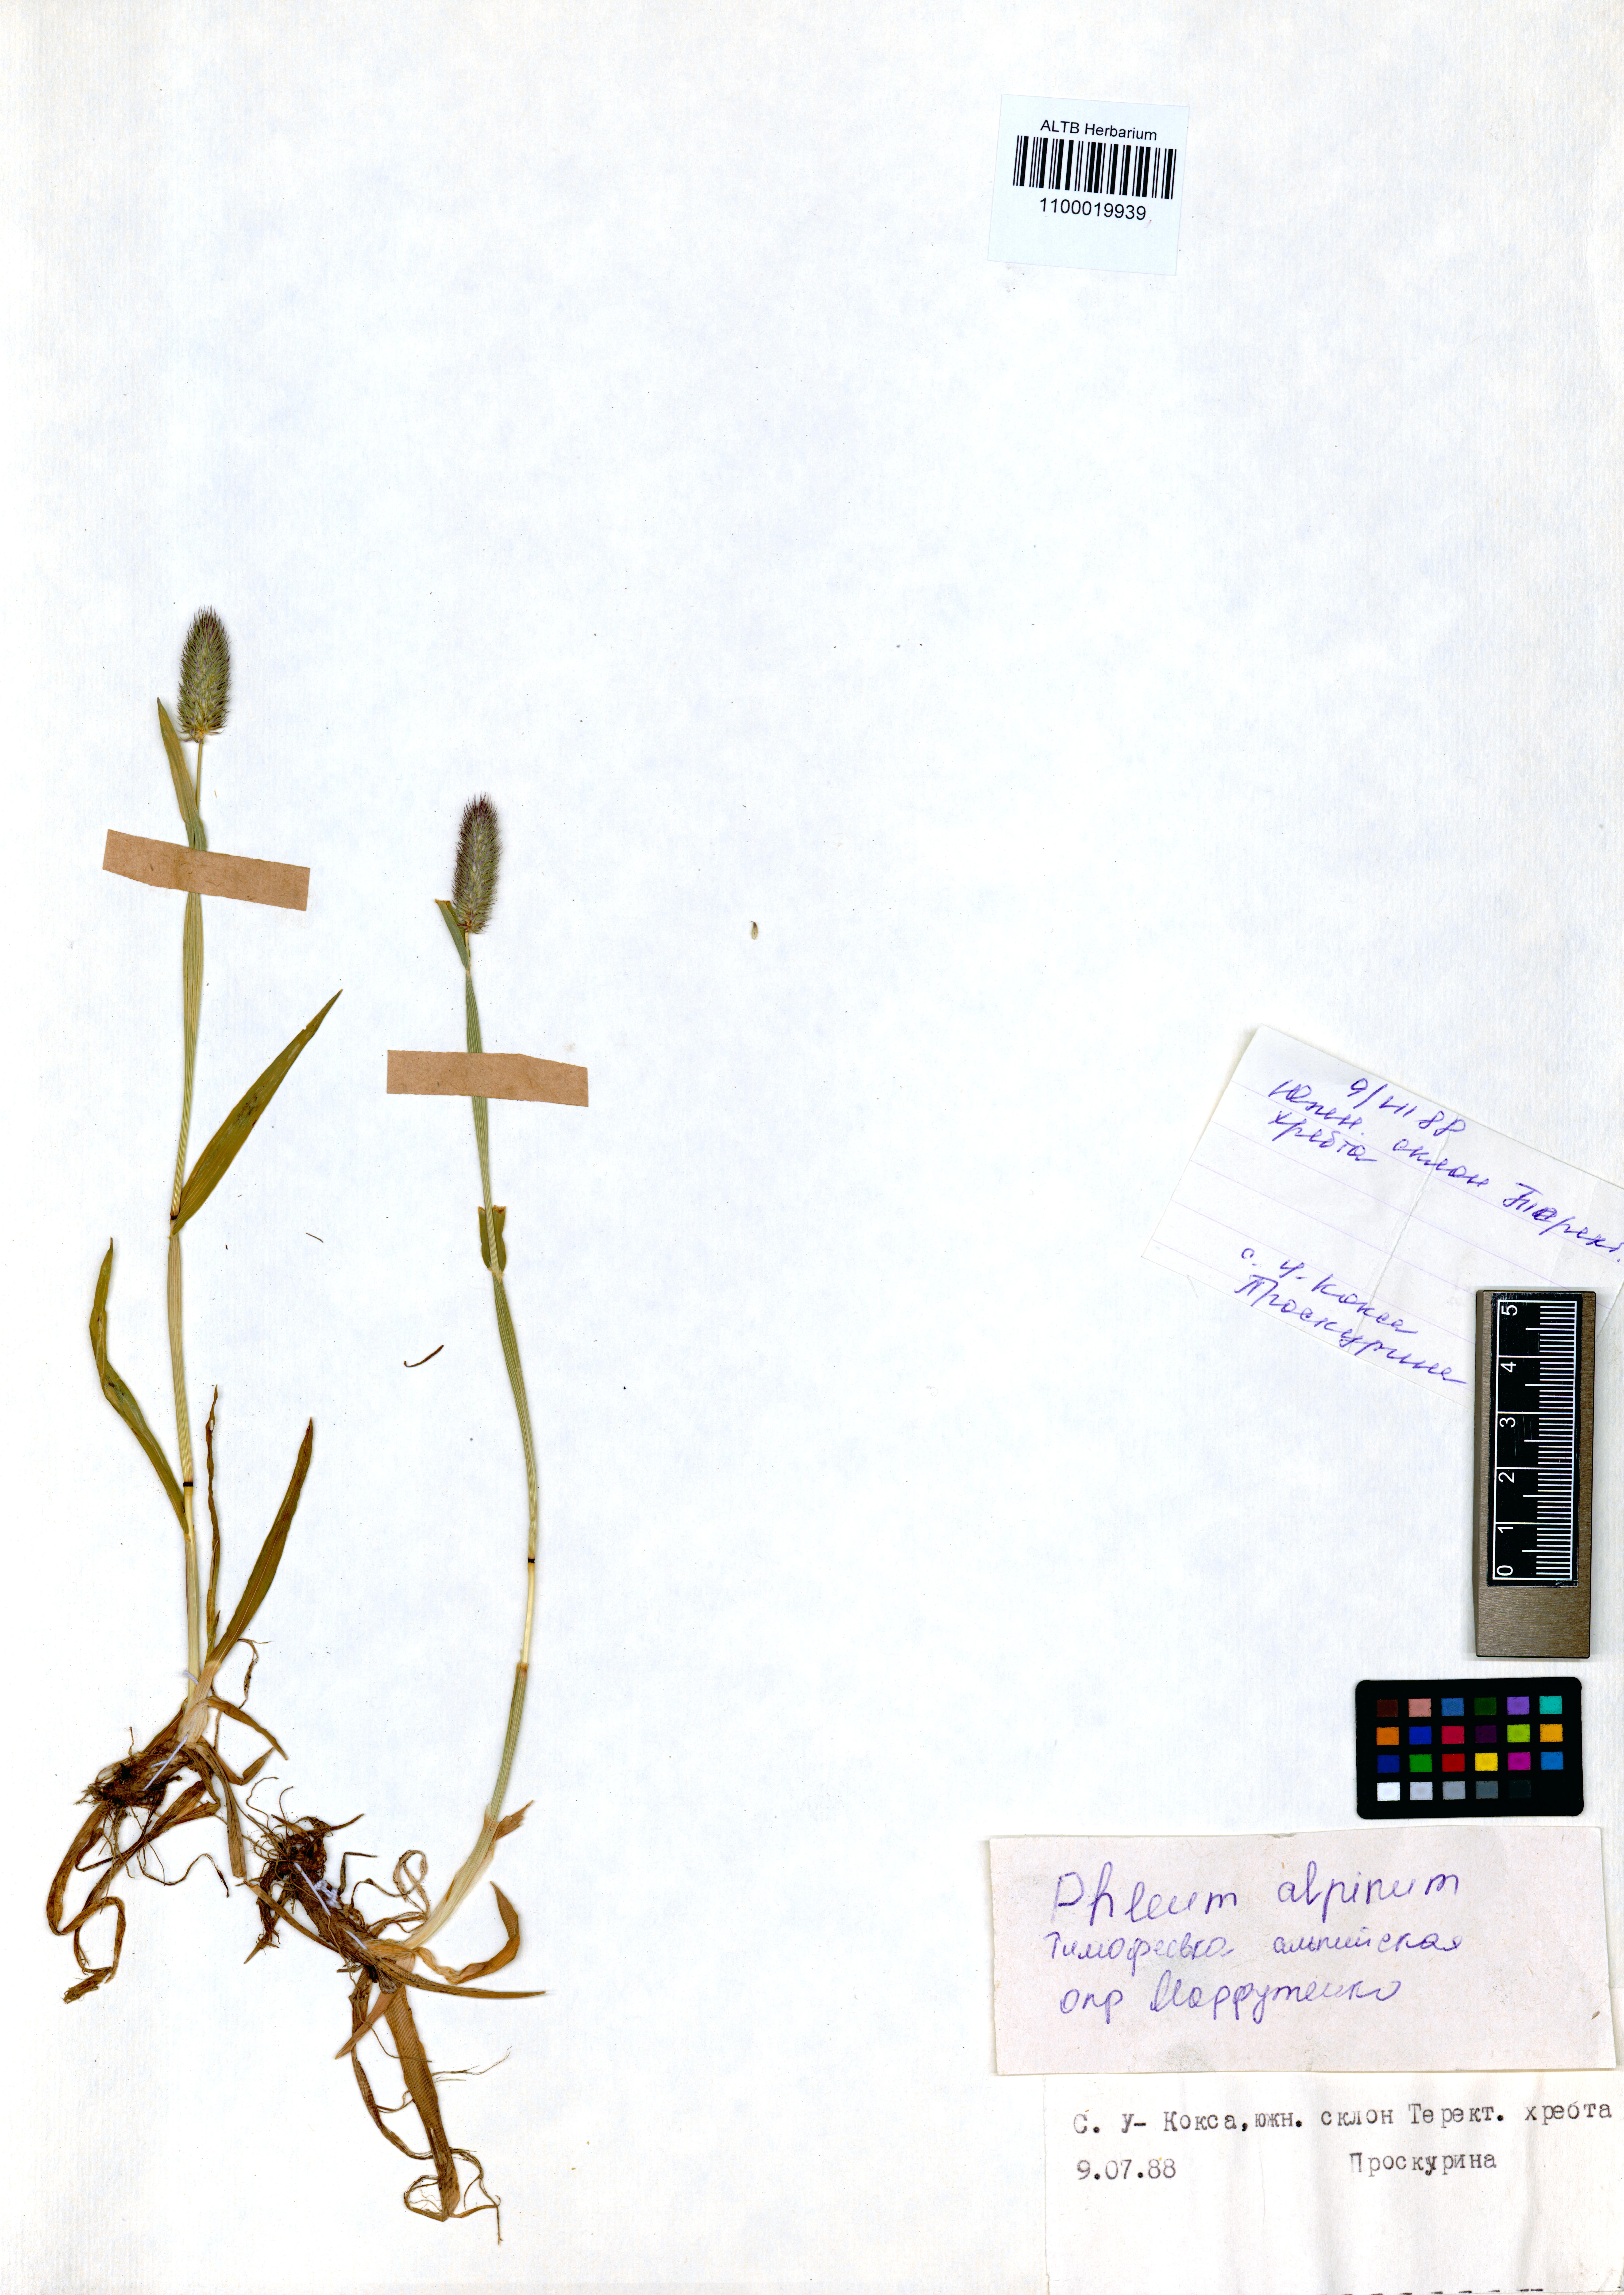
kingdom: Plantae
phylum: Tracheophyta
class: Liliopsida
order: Poales
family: Poaceae
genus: Phleum
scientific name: Phleum alpinum
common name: Alpine cat's-tail
